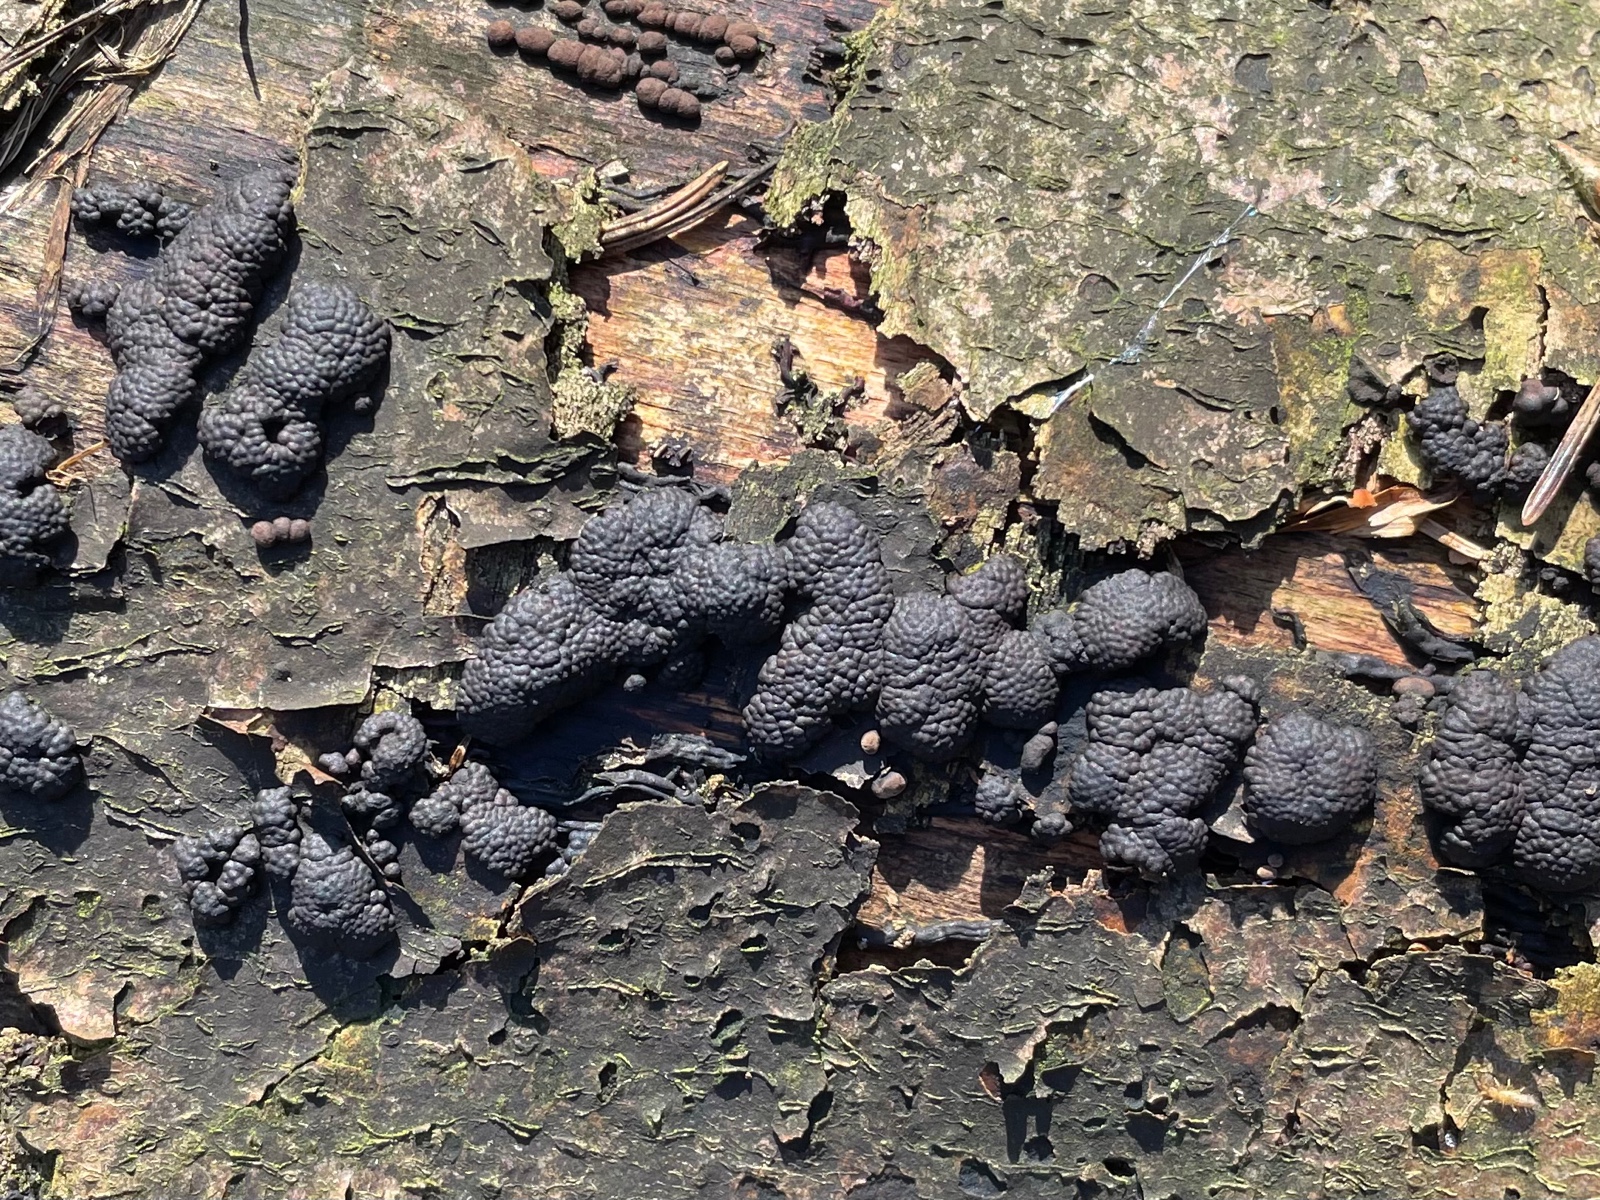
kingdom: Fungi
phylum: Ascomycota
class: Sordariomycetes
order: Xylariales
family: Hypoxylaceae
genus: Jackrogersella
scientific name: Jackrogersella multiformis
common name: foranderlig kulbær
